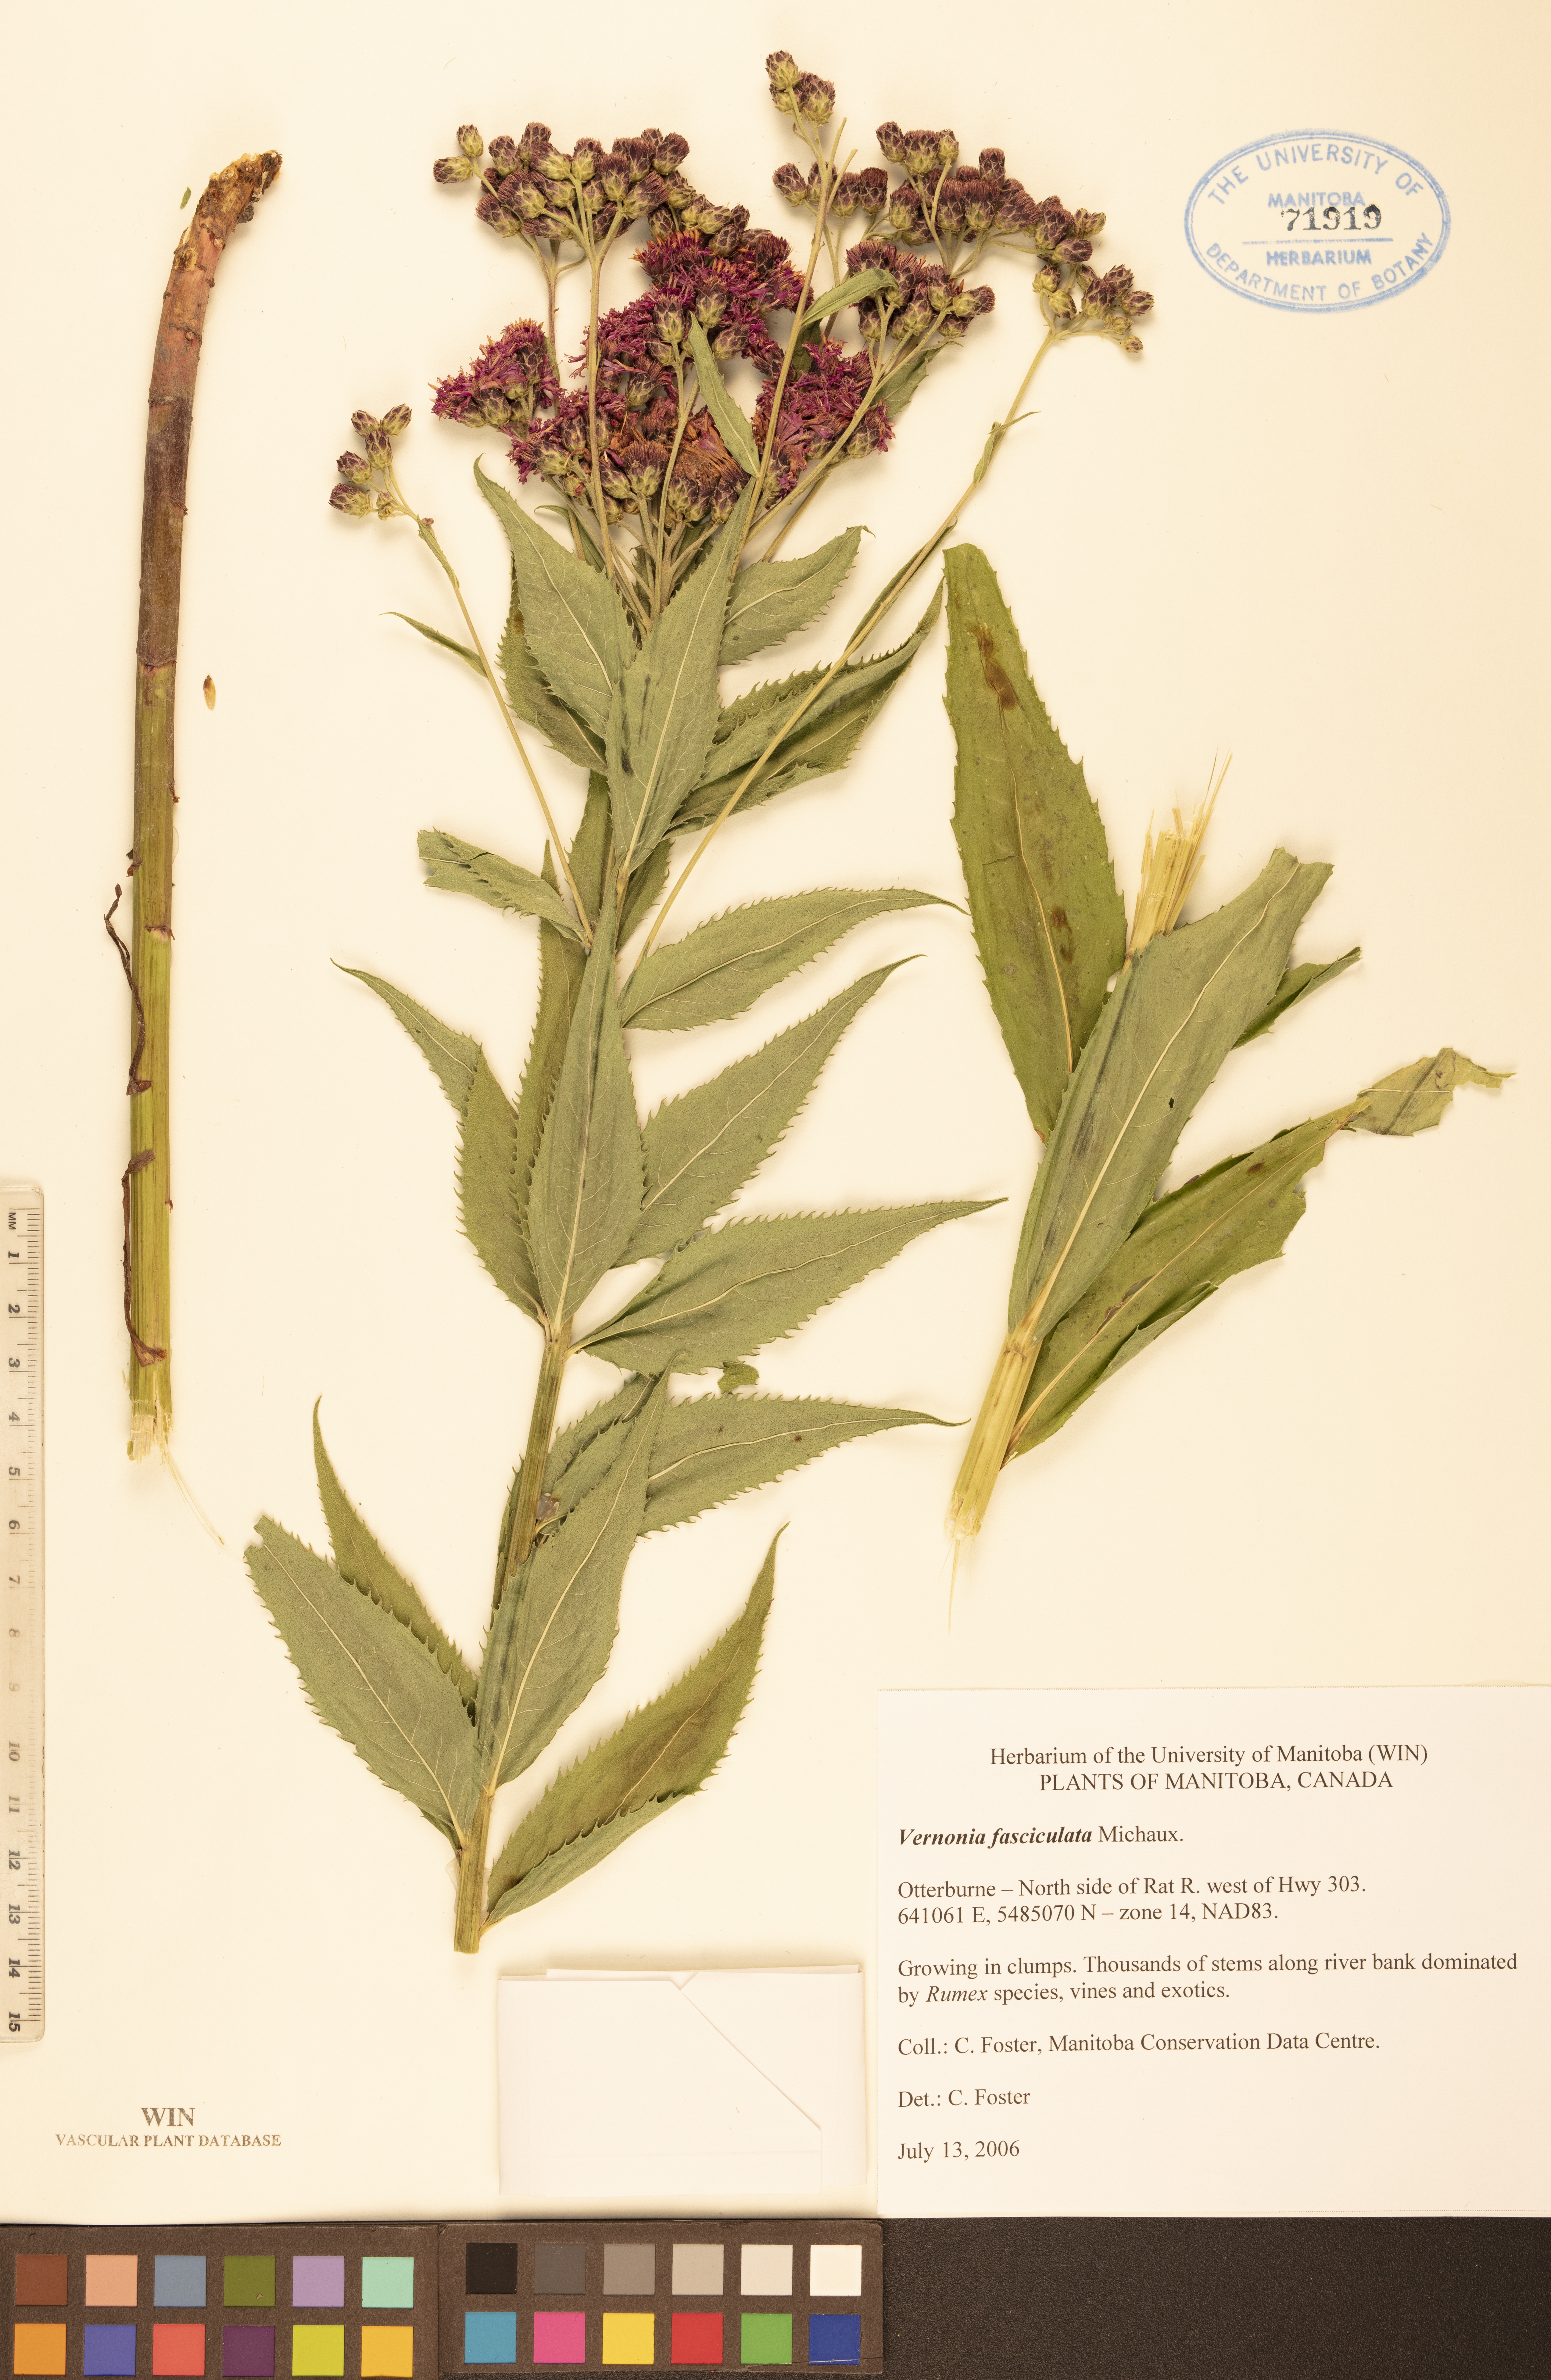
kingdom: Plantae
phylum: Tracheophyta
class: Magnoliopsida
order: Asterales
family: Asteraceae
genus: Vernonia
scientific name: Vernonia fasciculata
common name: Fascicled ironweed
